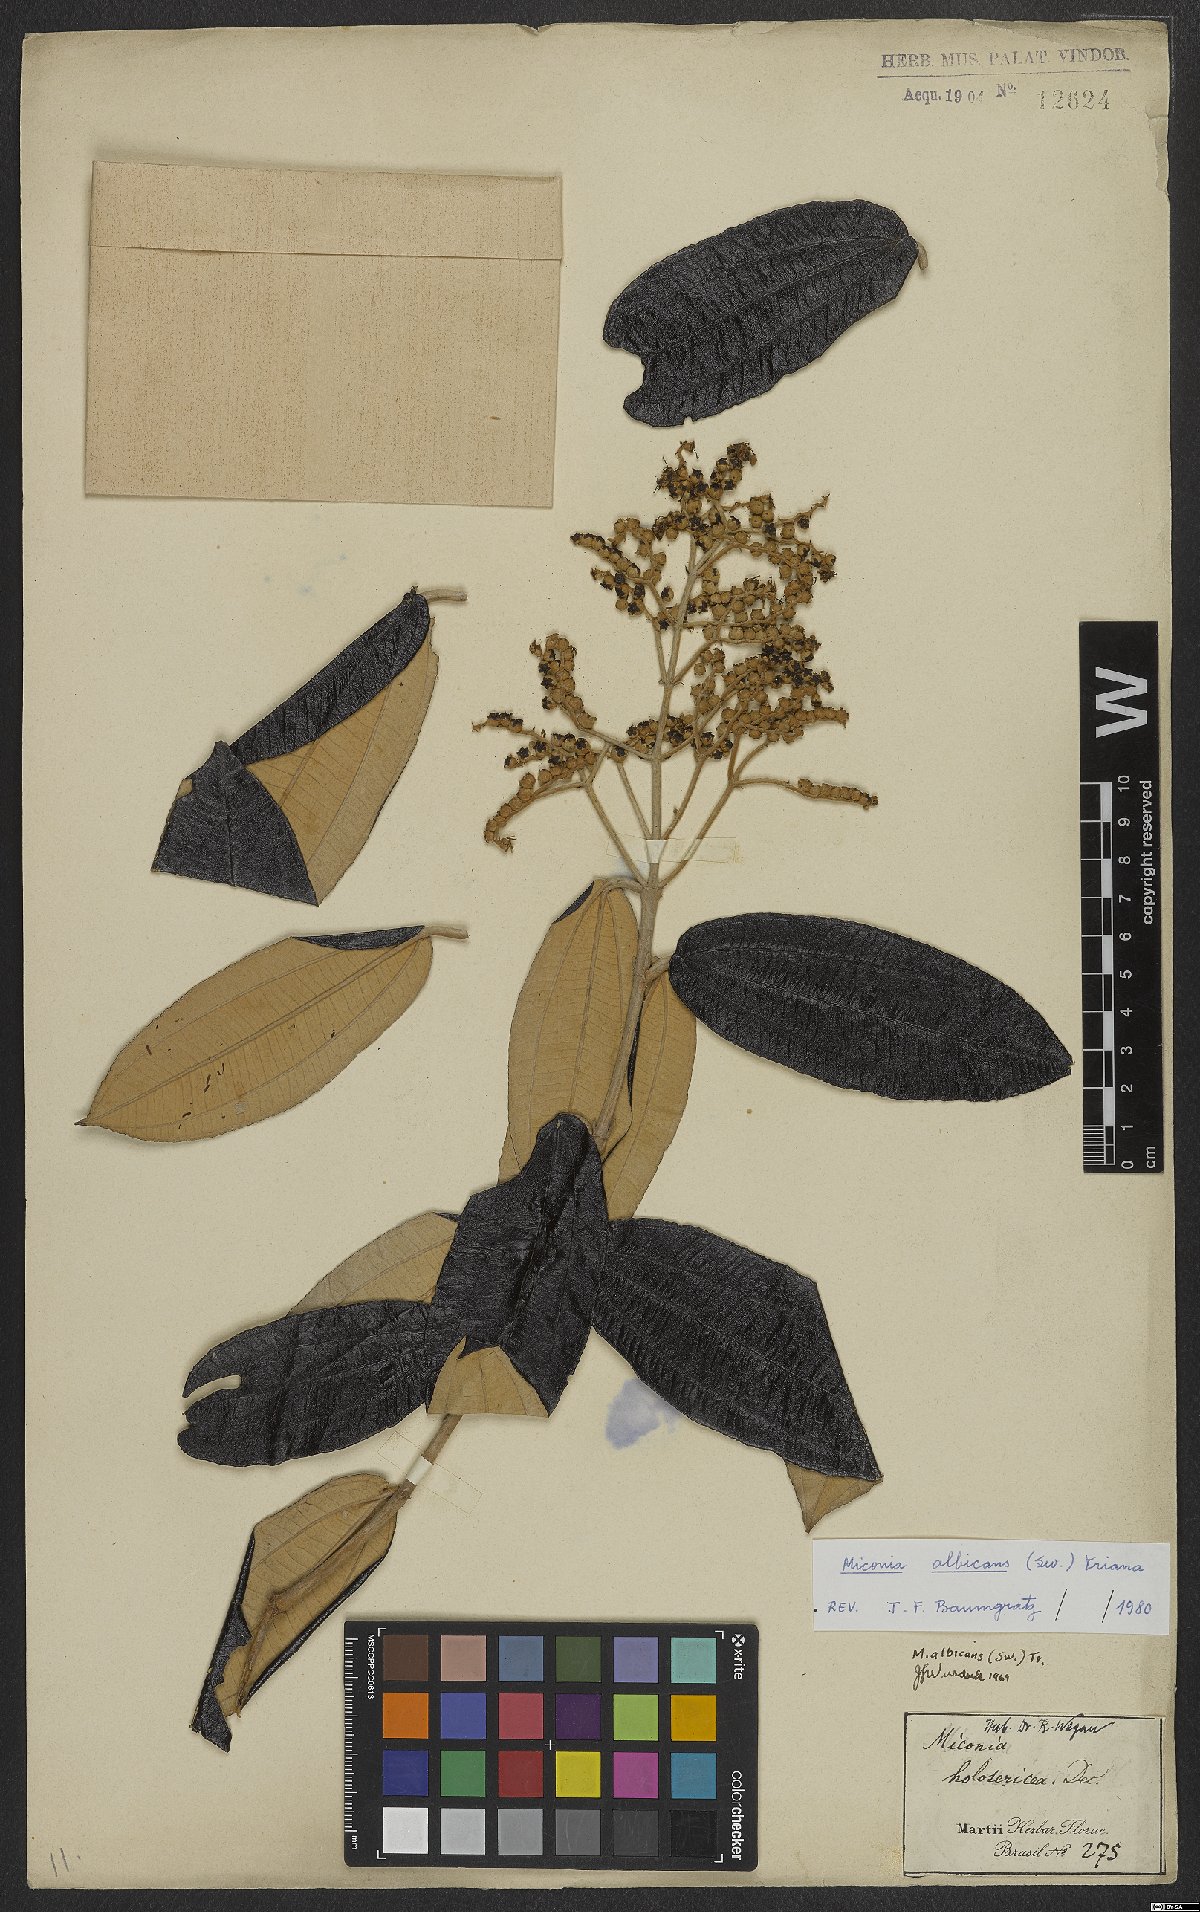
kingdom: Plantae
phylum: Tracheophyta
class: Magnoliopsida
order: Myrtales
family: Melastomataceae
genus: Miconia
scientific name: Miconia albicans
